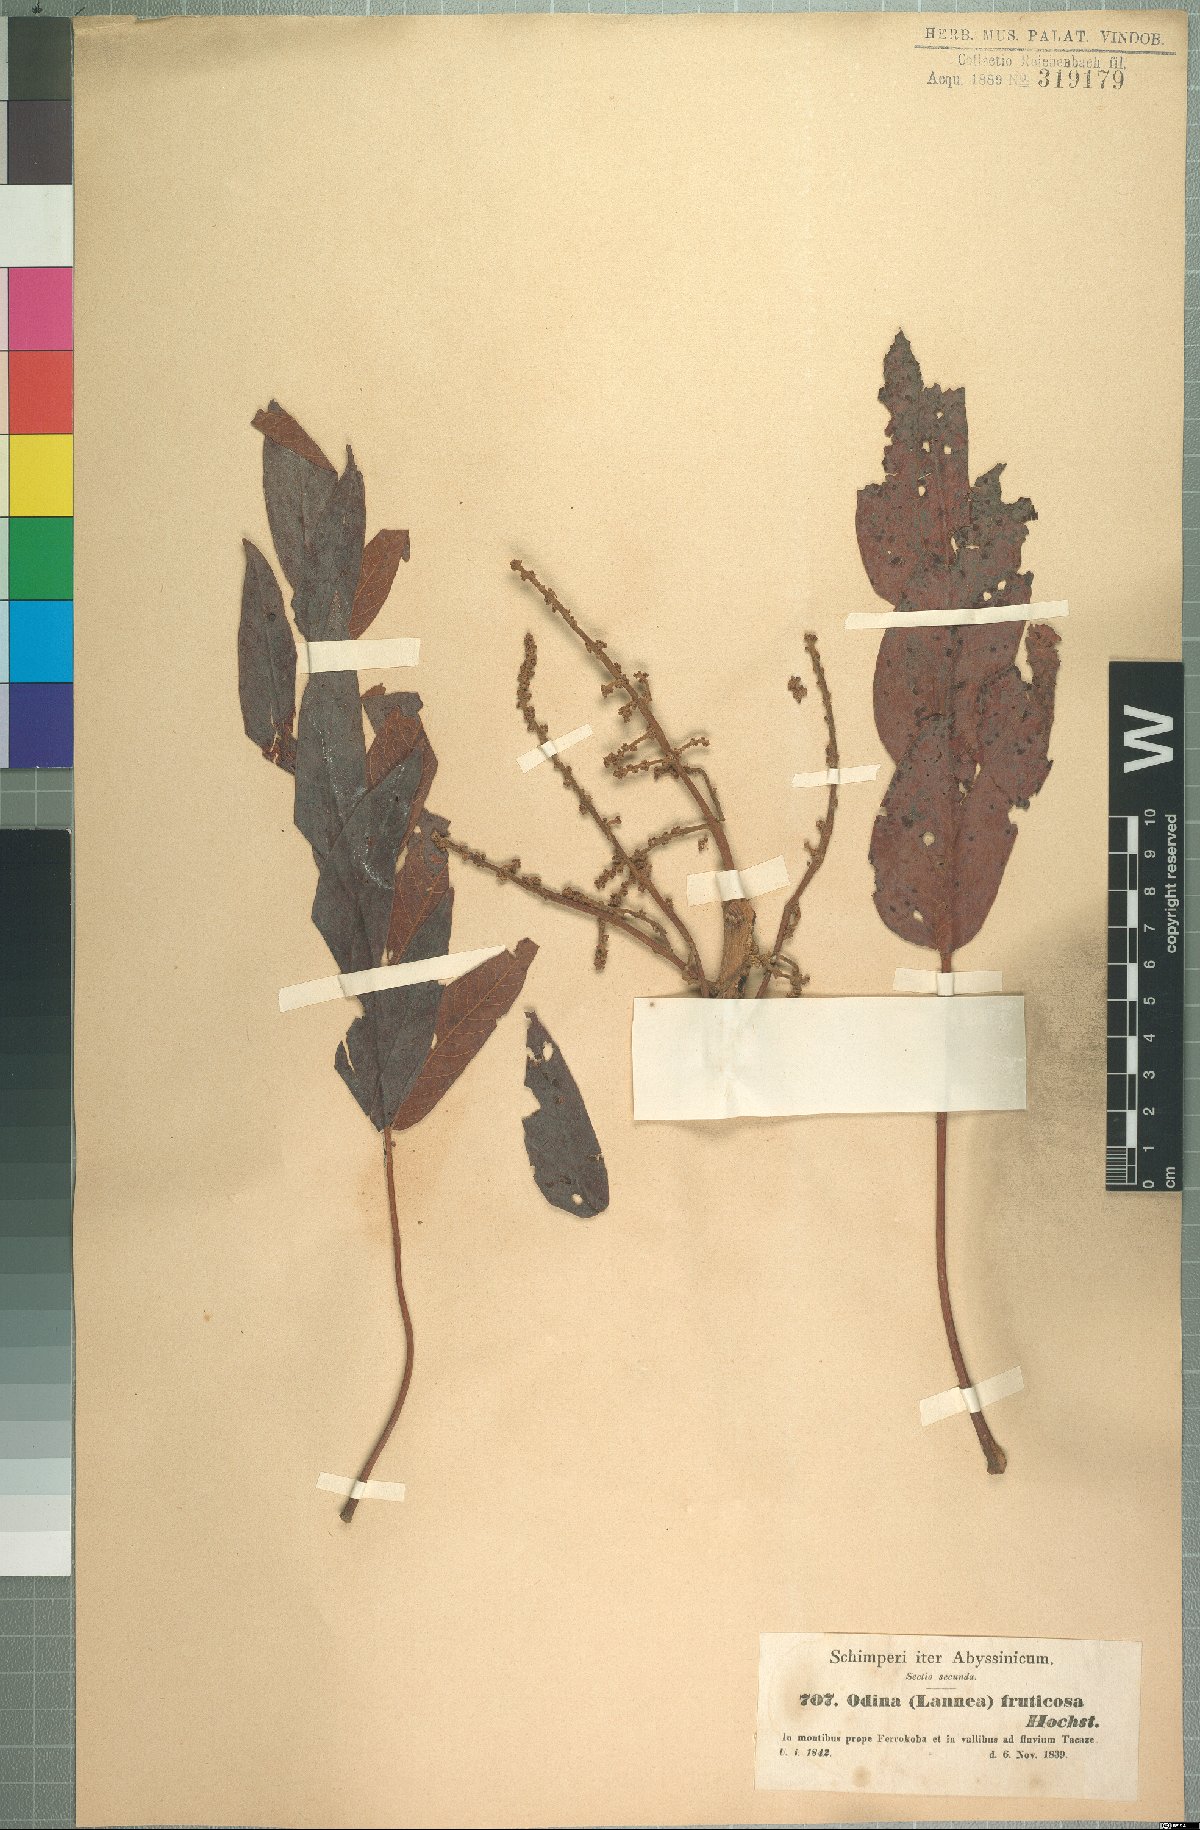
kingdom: Plantae
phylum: Tracheophyta
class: Magnoliopsida
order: Sapindales
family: Anacardiaceae
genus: Lannea
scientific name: Lannea fruticosa
